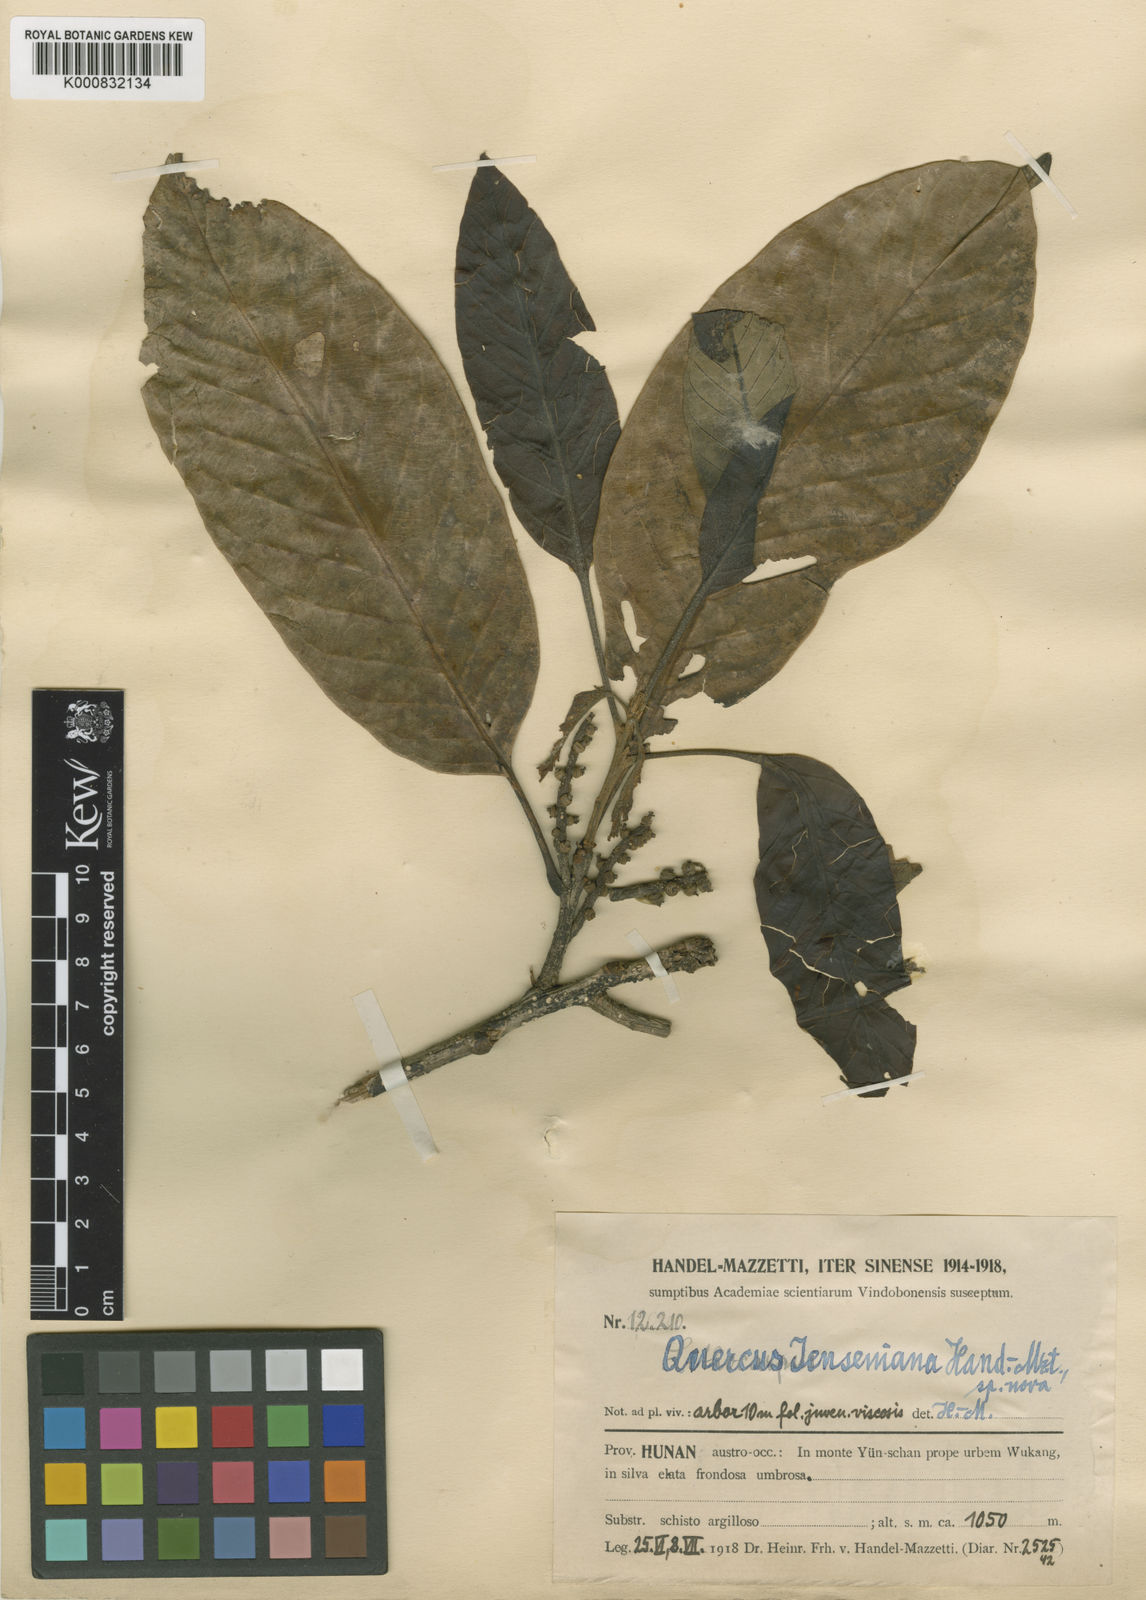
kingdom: Plantae
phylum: Tracheophyta
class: Magnoliopsida
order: Fagales
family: Fagaceae
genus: Quercus
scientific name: Quercus jenseniana
